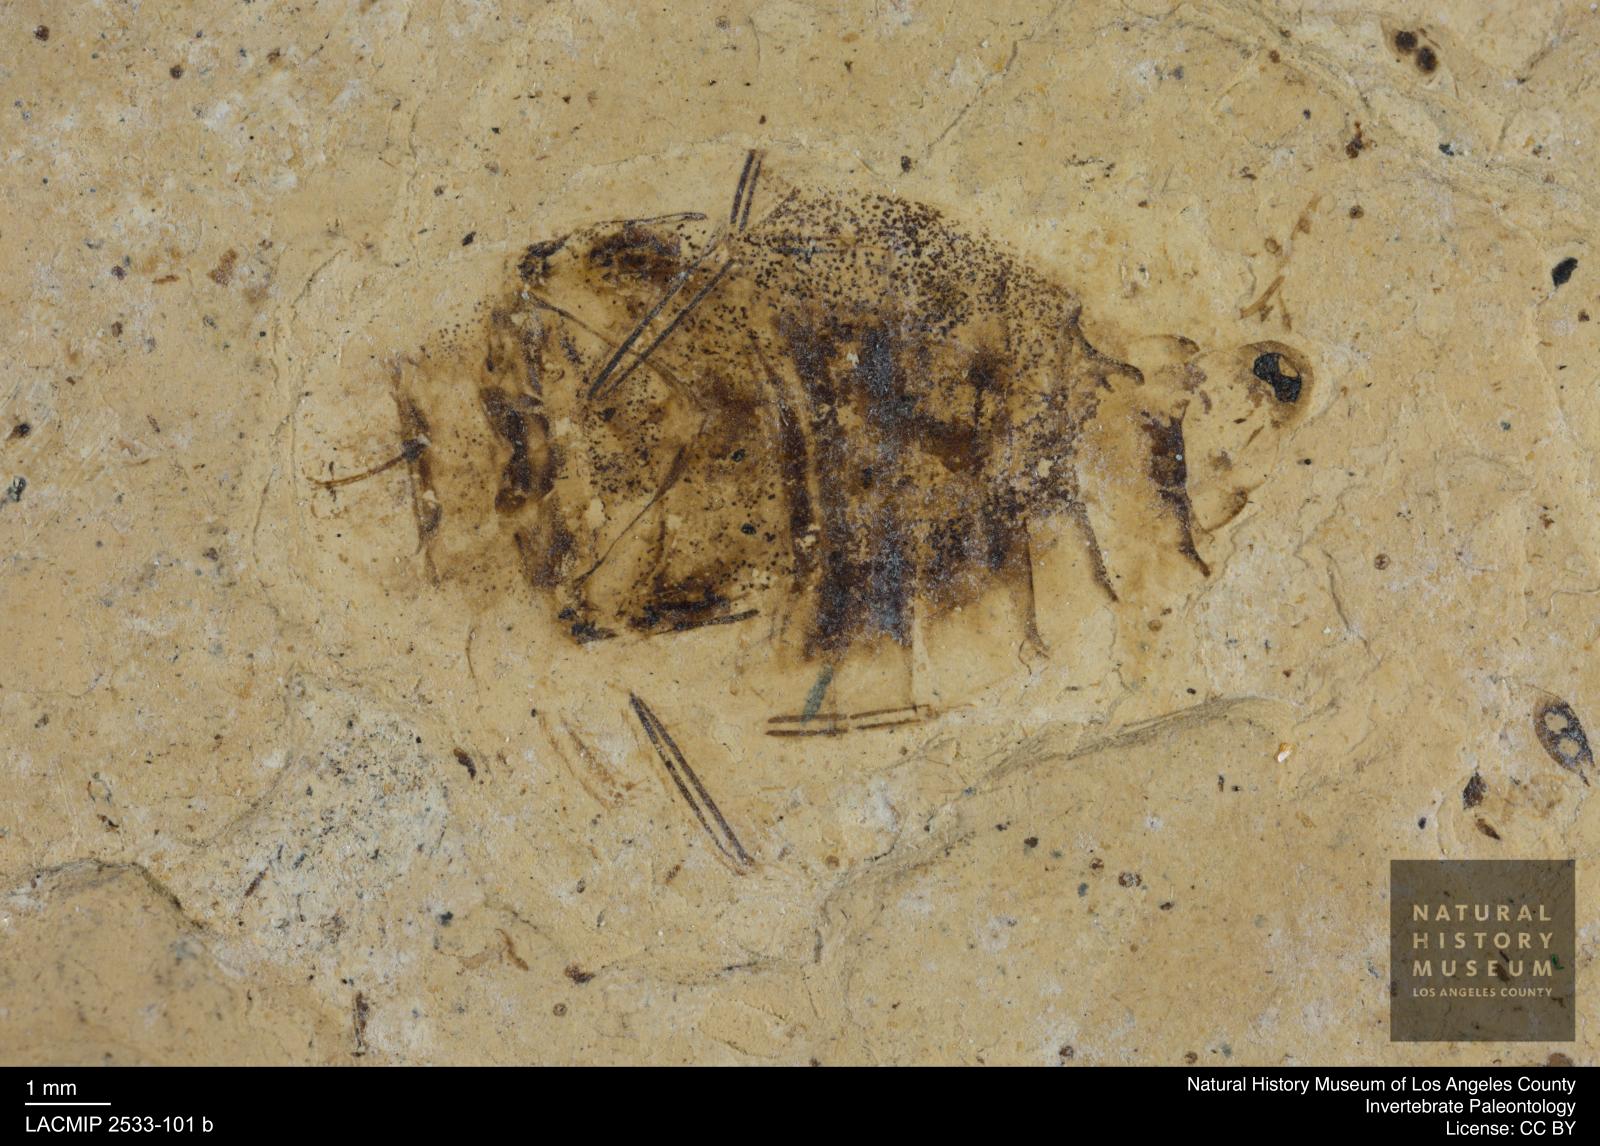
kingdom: Animalia
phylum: Arthropoda
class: Insecta
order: Hemiptera
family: Naucoridae
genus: Naucoris
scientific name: Naucoris rottensis
